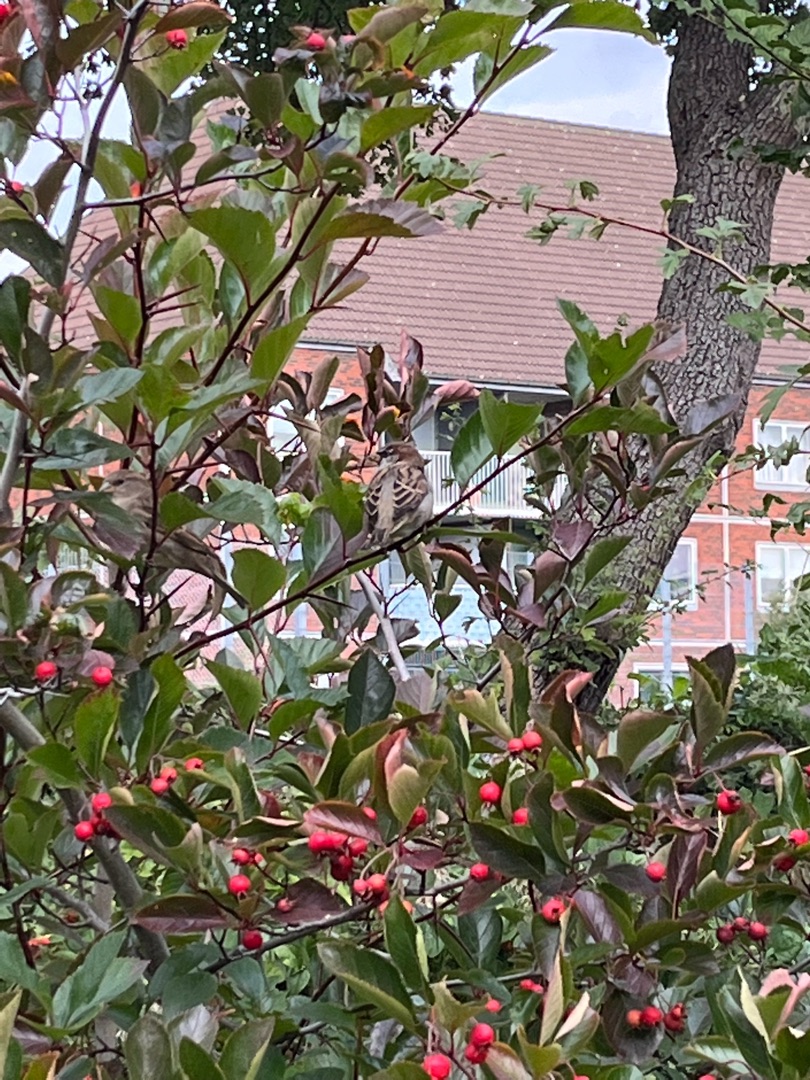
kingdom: Animalia
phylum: Chordata
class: Aves
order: Passeriformes
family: Passeridae
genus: Passer
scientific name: Passer domesticus
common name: Gråspurv
